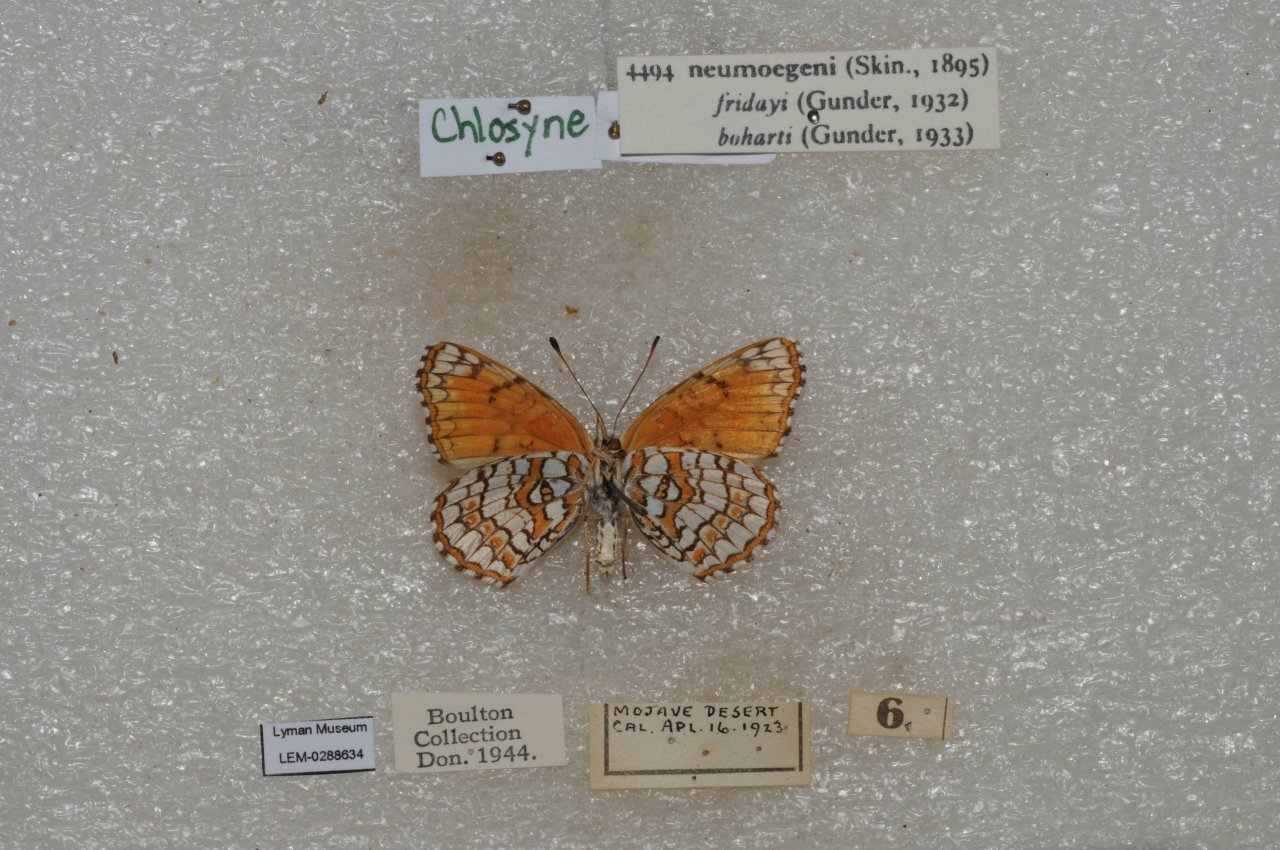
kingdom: Animalia
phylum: Arthropoda
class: Insecta
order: Lepidoptera
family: Nymphalidae
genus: Chlosyne
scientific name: Chlosyne acastus
